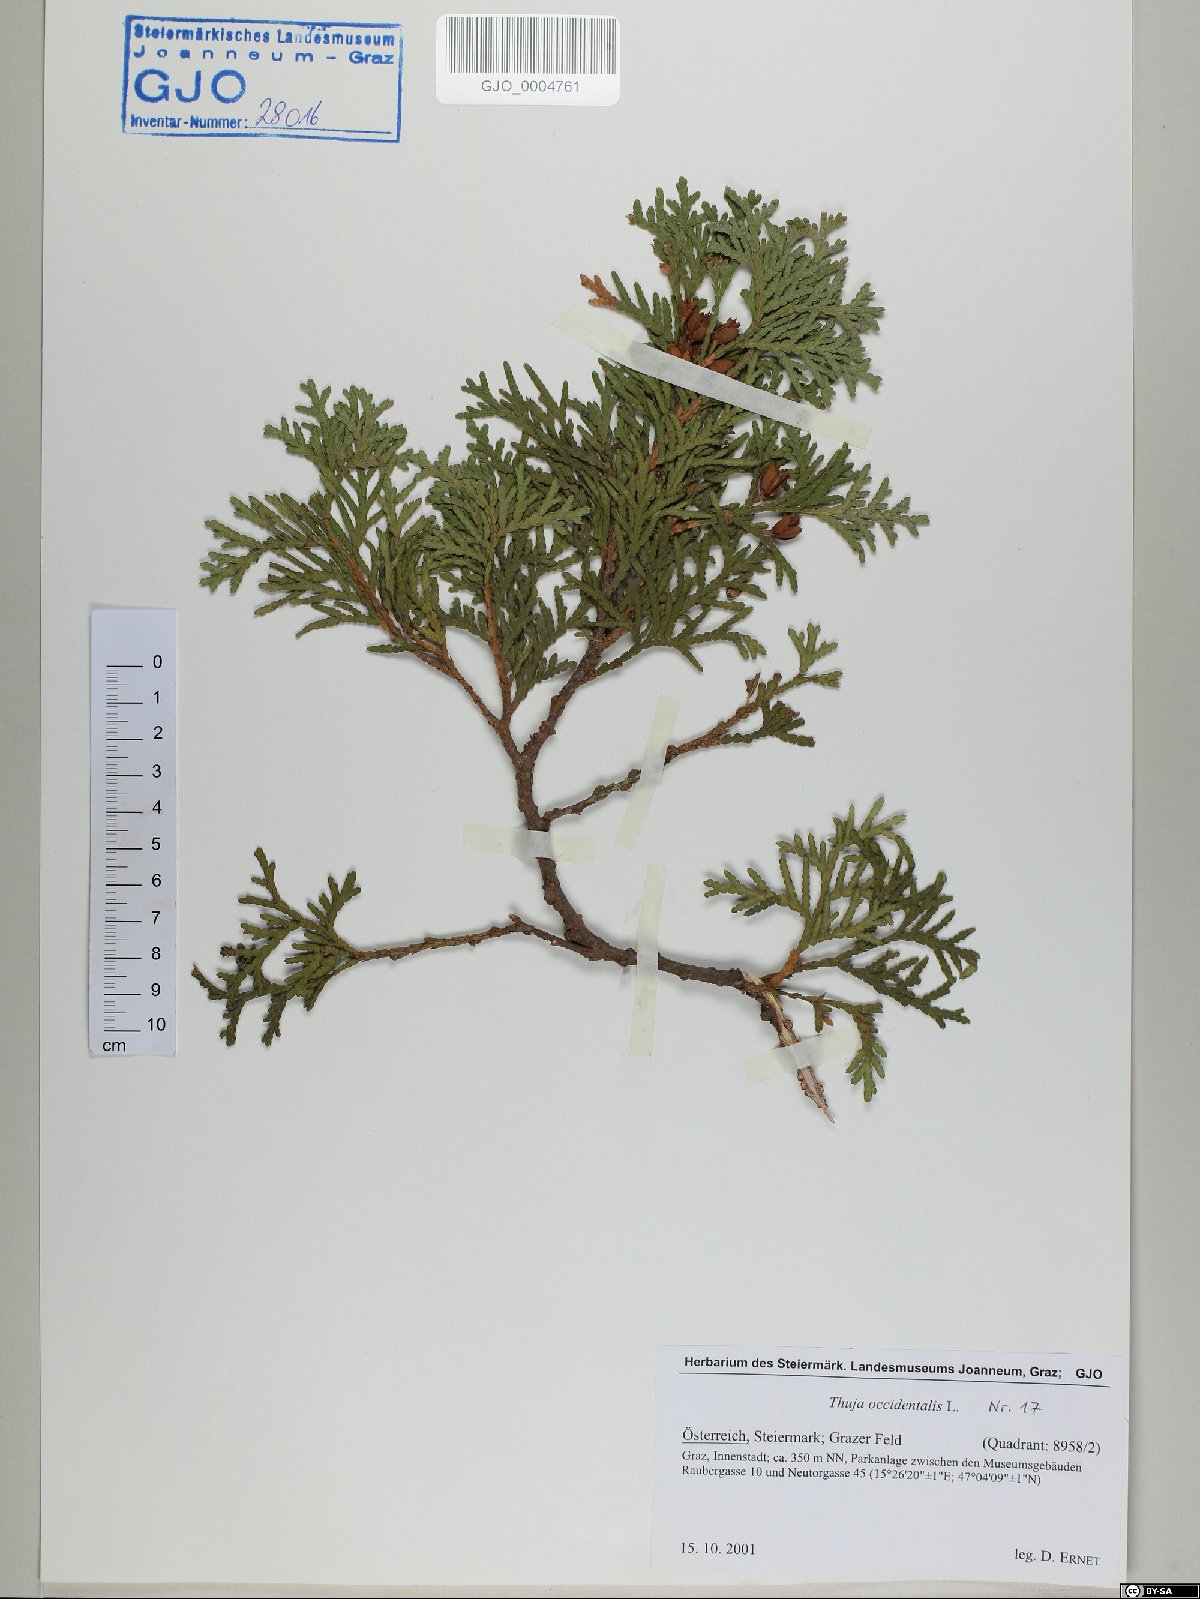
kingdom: Plantae
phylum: Tracheophyta
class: Pinopsida
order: Pinales
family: Cupressaceae
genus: Thuja
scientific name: Thuja occidentalis
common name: Northern white-cedar
